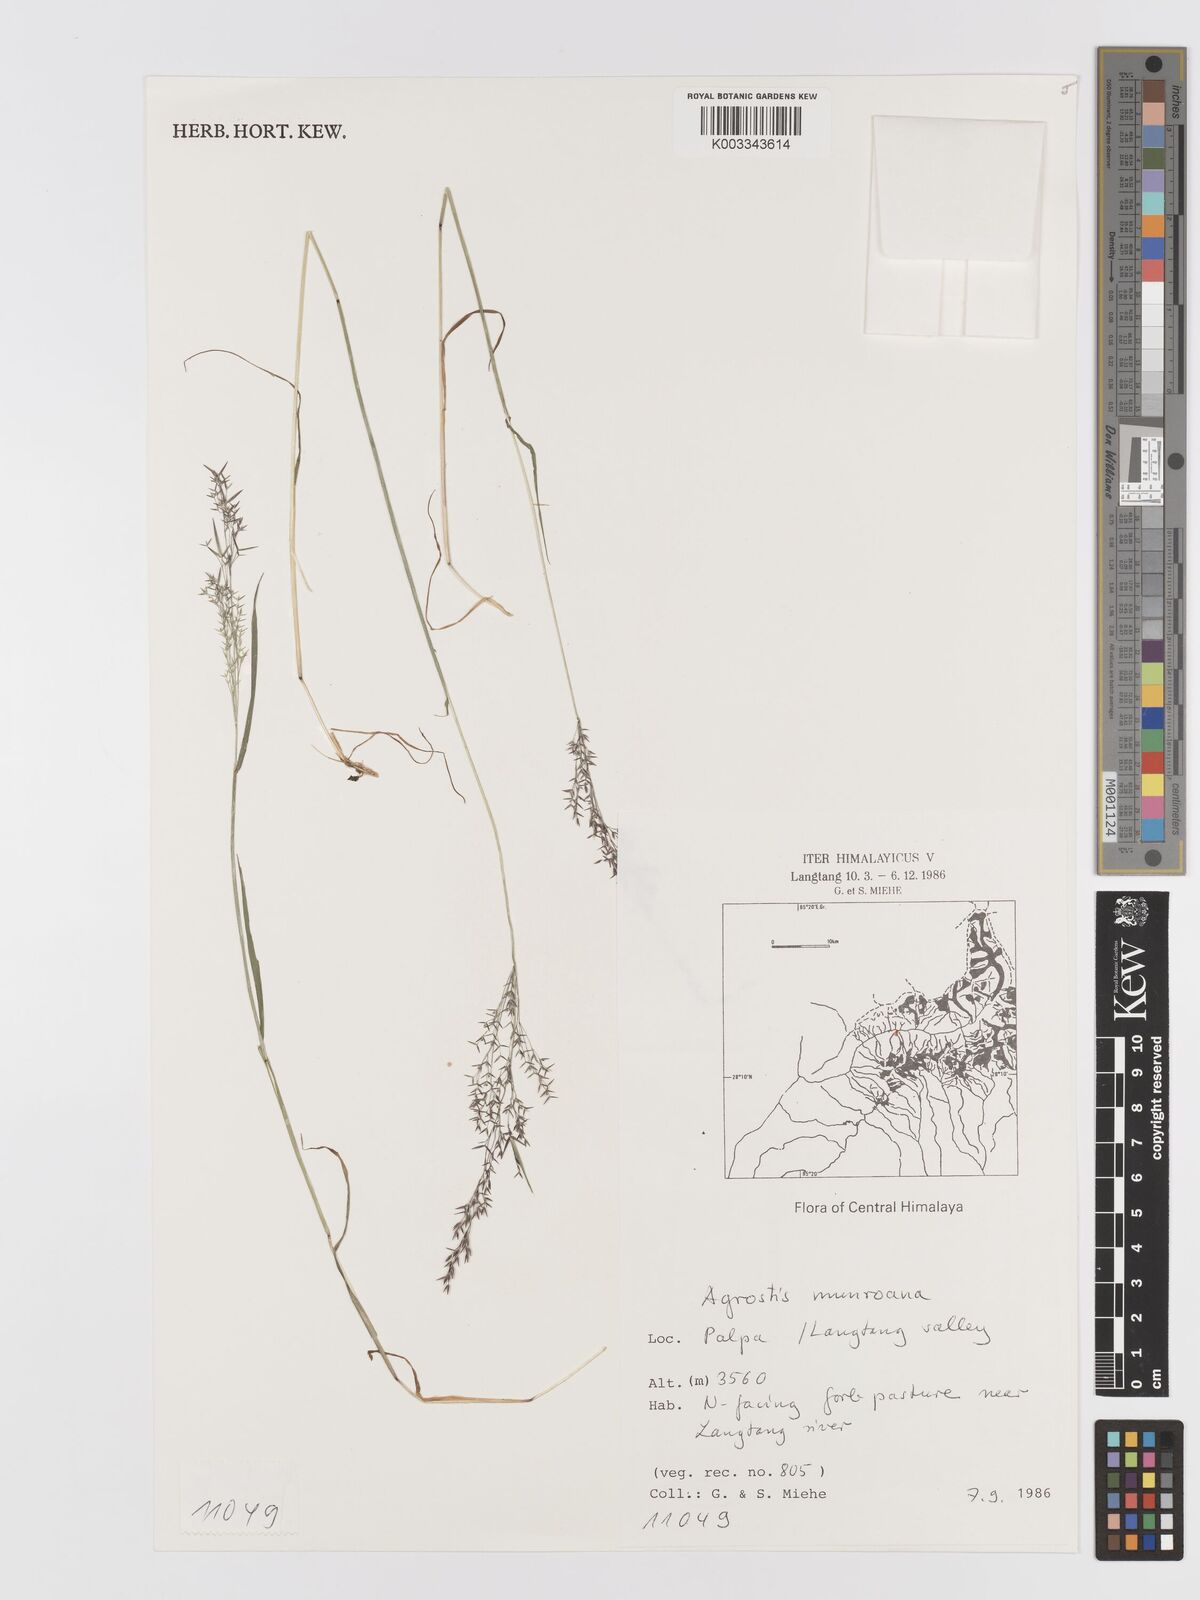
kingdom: Plantae
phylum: Tracheophyta
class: Liliopsida
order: Poales
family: Poaceae
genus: Agrostis
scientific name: Agrostis munroana
